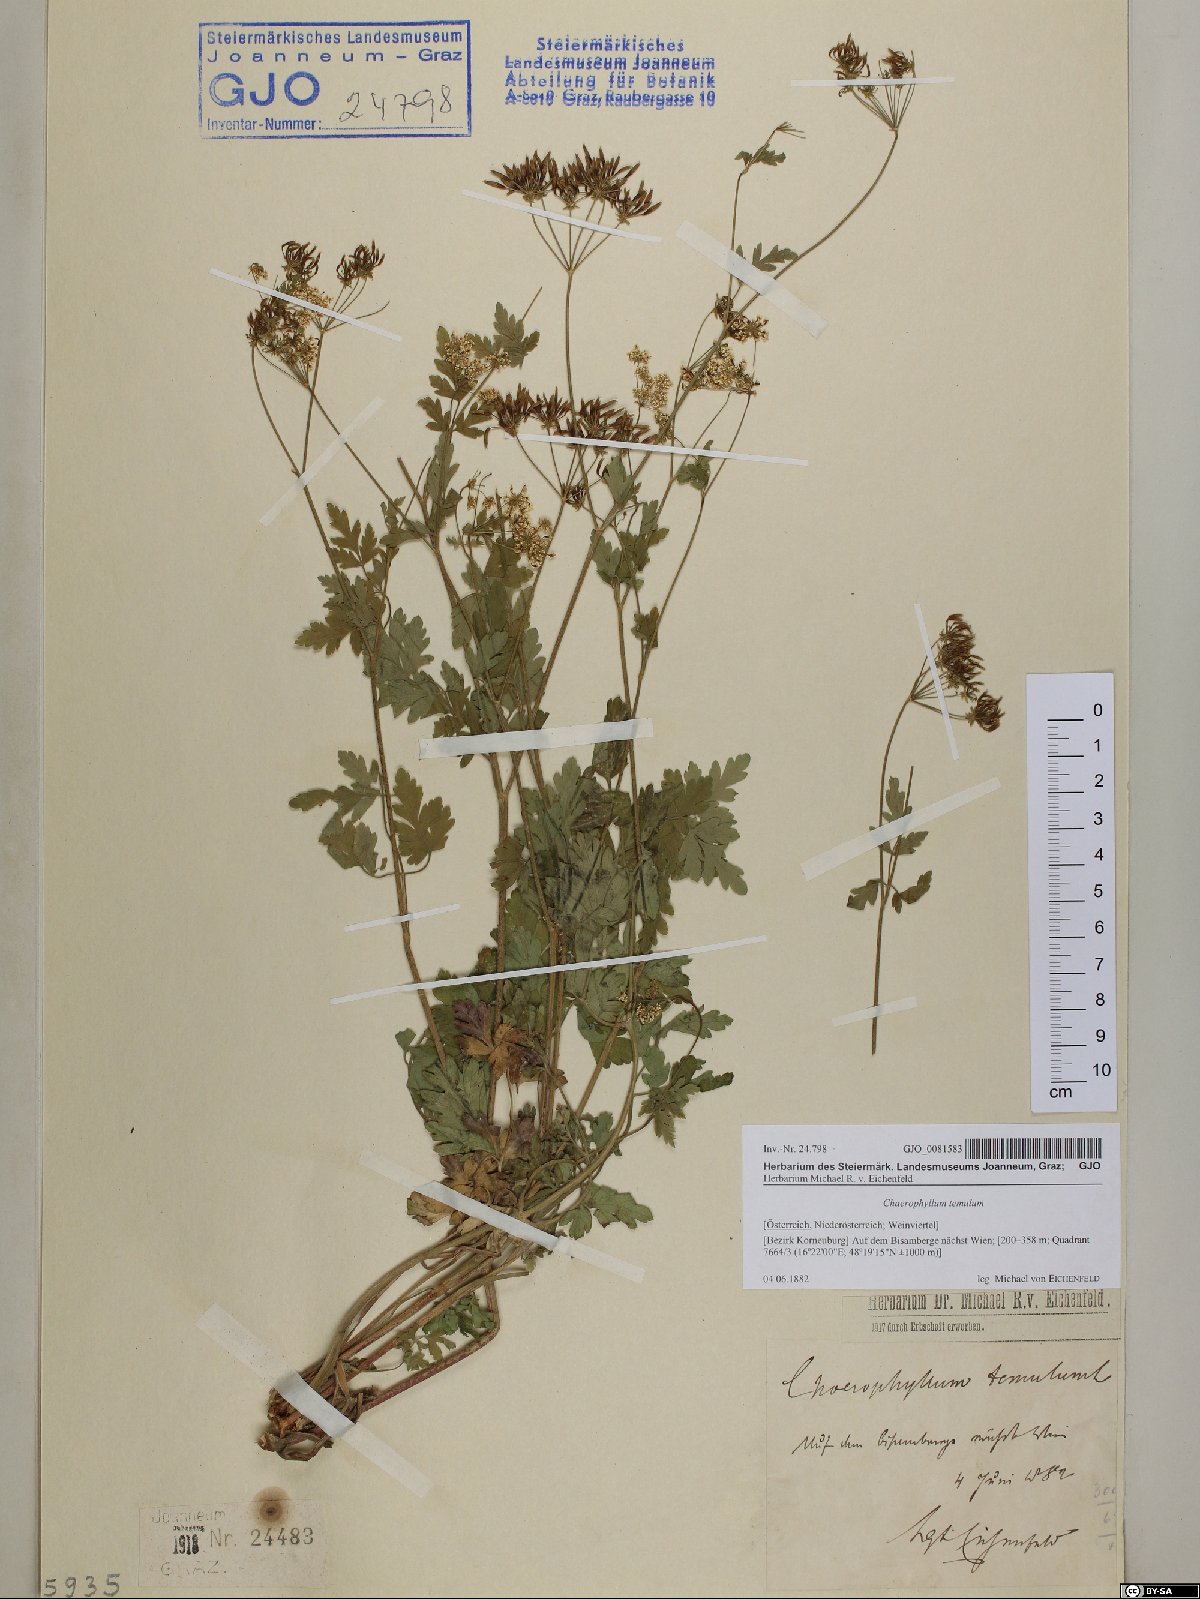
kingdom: Plantae
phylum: Tracheophyta
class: Magnoliopsida
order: Apiales
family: Apiaceae
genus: Chaerophyllum
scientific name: Chaerophyllum temulum
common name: Rough chervil
